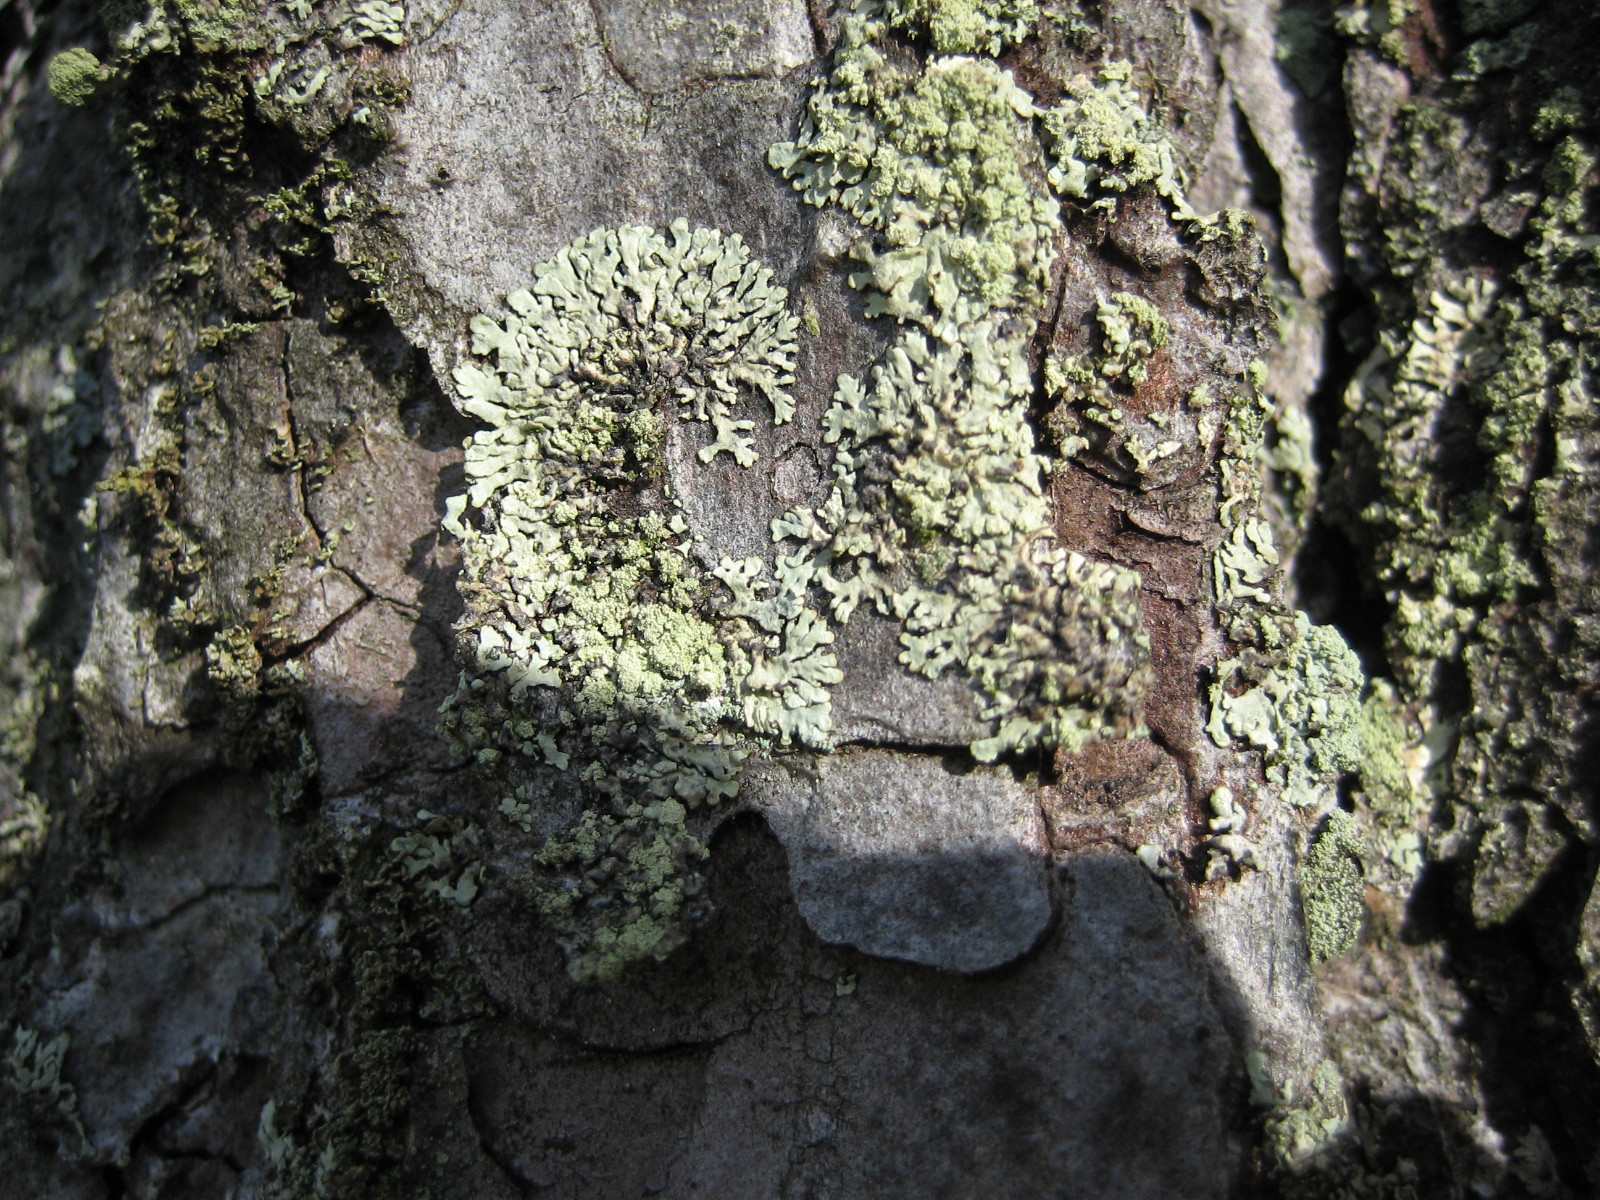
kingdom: Fungi
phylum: Ascomycota
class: Lecanoromycetes
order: Lecanorales
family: Parmeliaceae
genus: Parmeliopsis
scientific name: Parmeliopsis ambigua
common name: gul stolpelav
